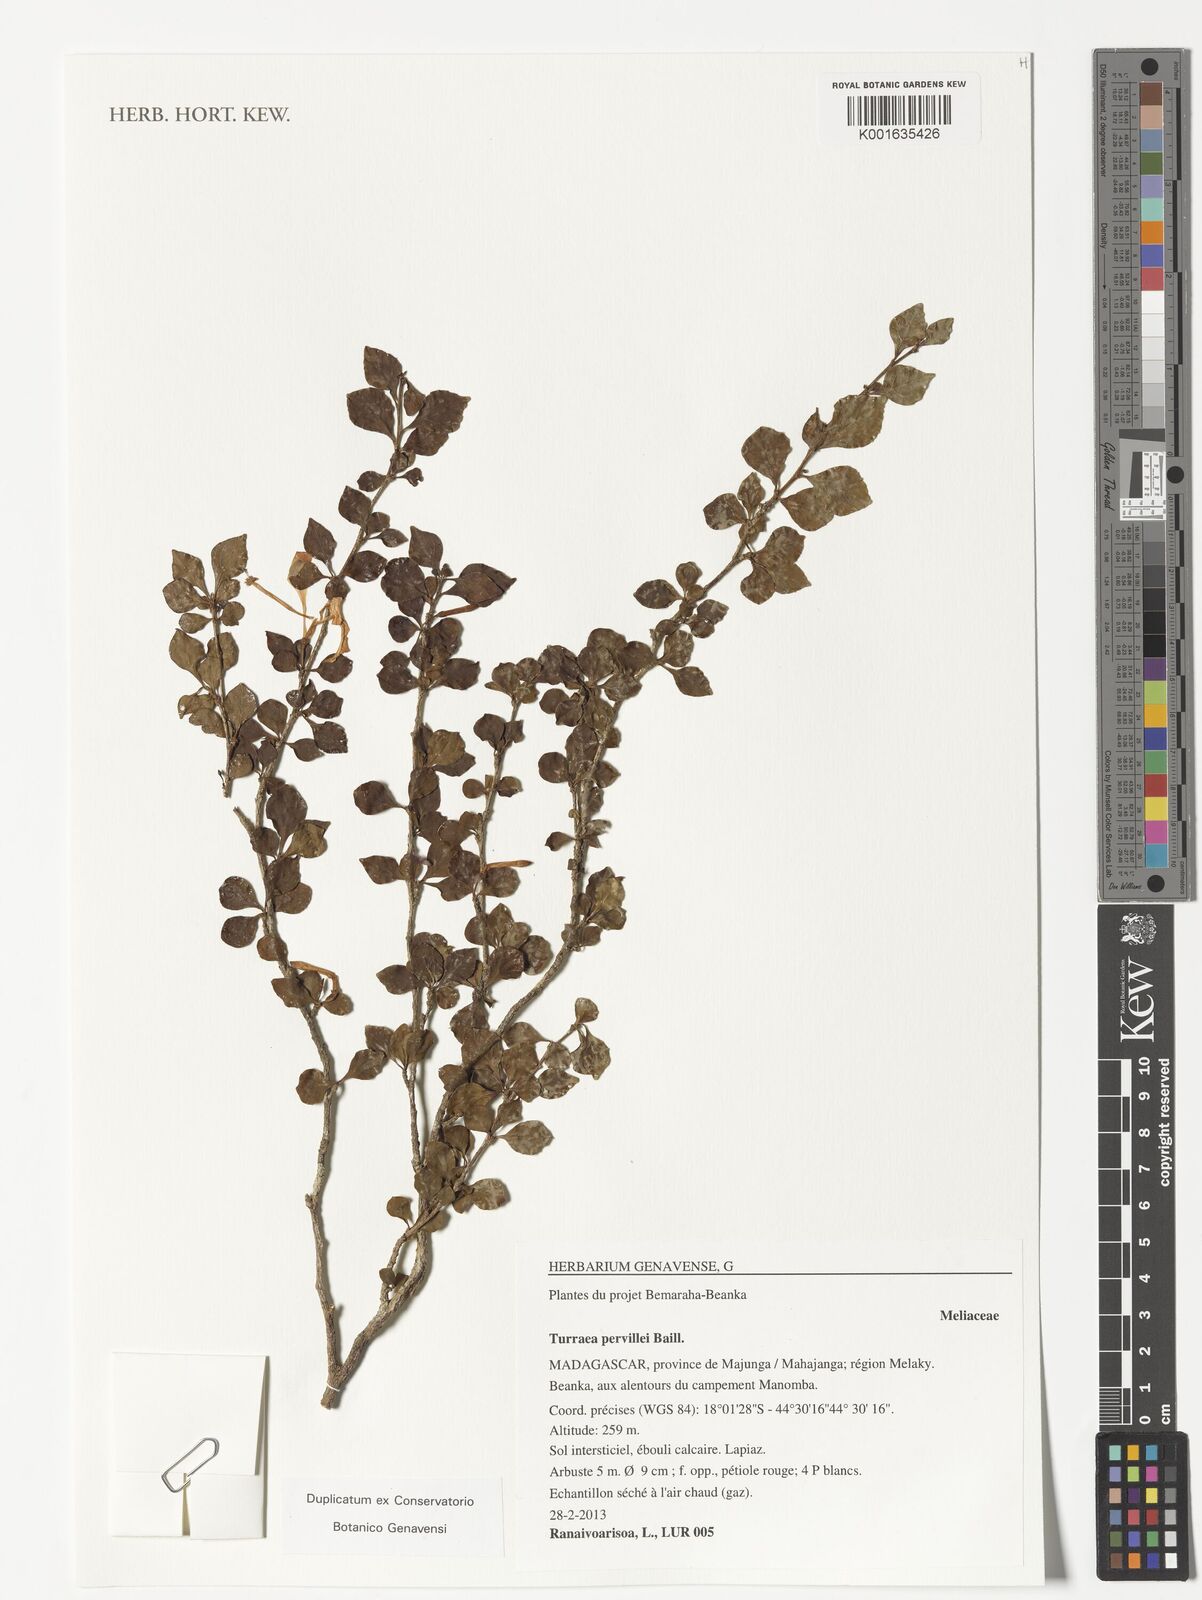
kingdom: Plantae
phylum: Tracheophyta
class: Magnoliopsida
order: Sapindales
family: Meliaceae
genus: Turraea
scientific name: Turraea pervillei
